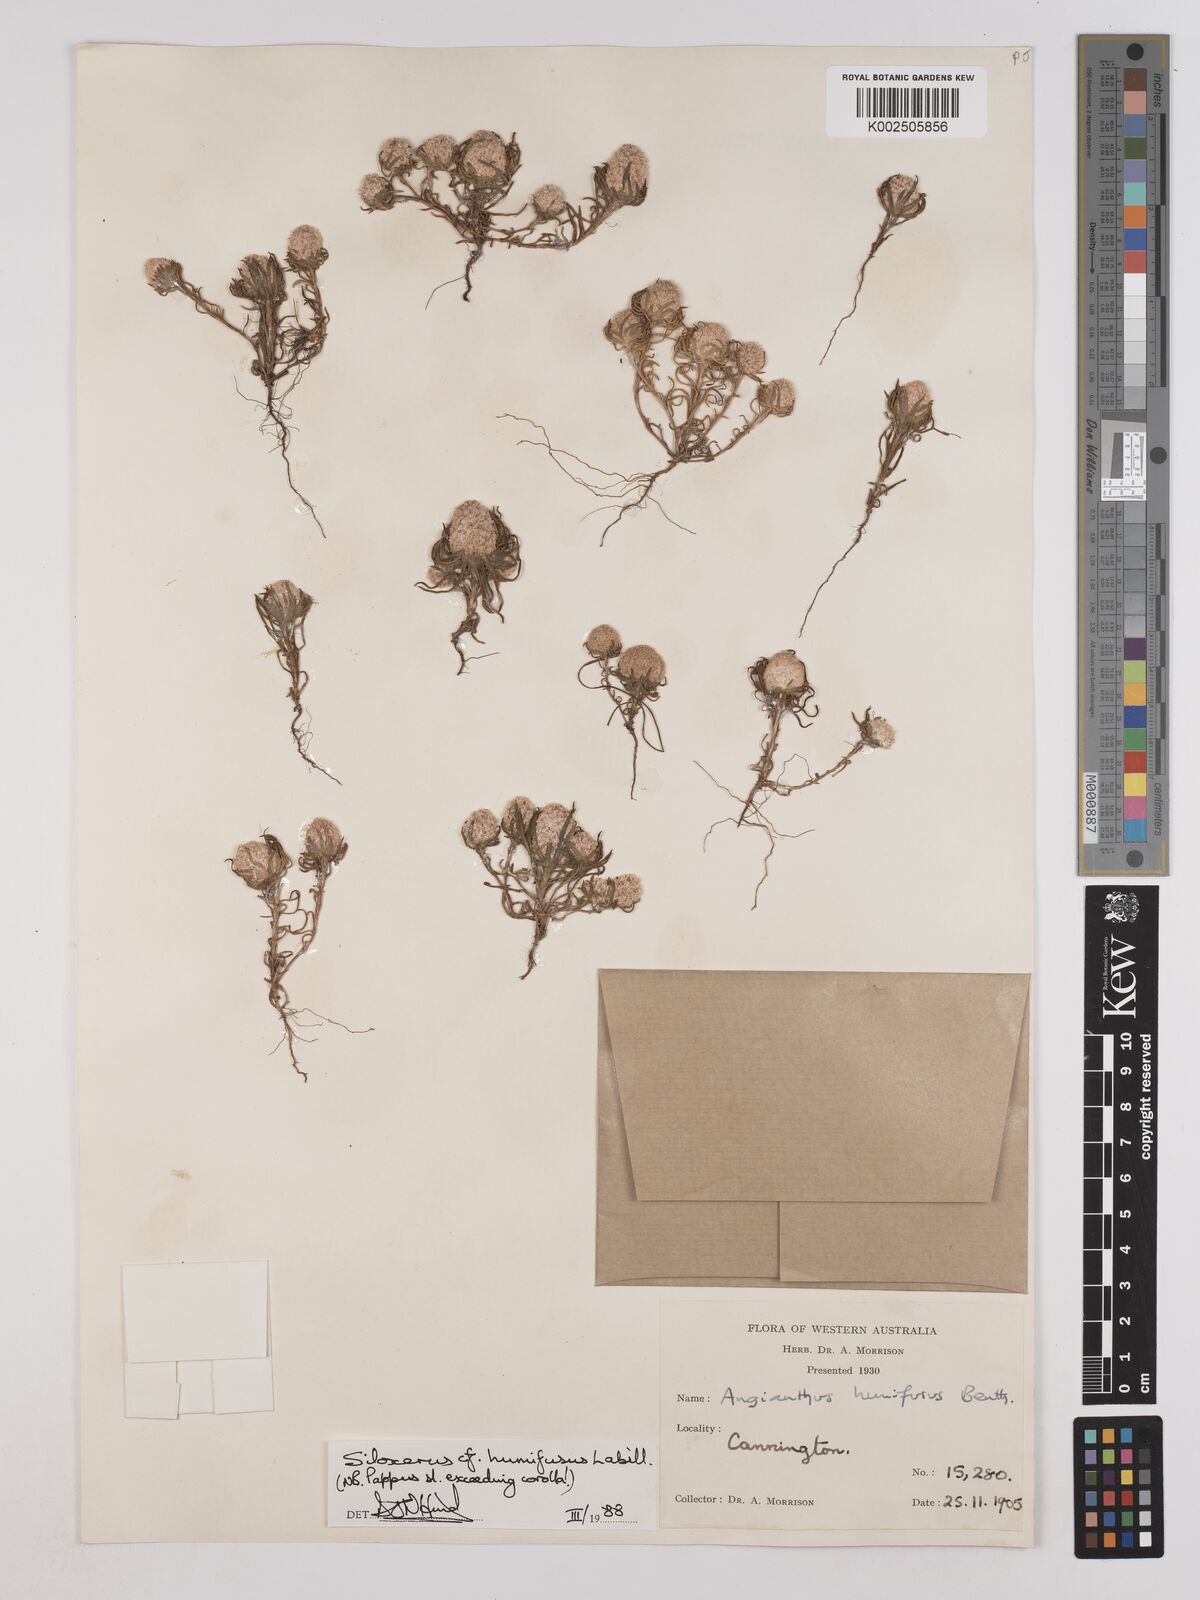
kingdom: Plantae
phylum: Tracheophyta
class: Magnoliopsida
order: Asterales
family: Asteraceae
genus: Siloxerus
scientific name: Siloxerus humifusus
